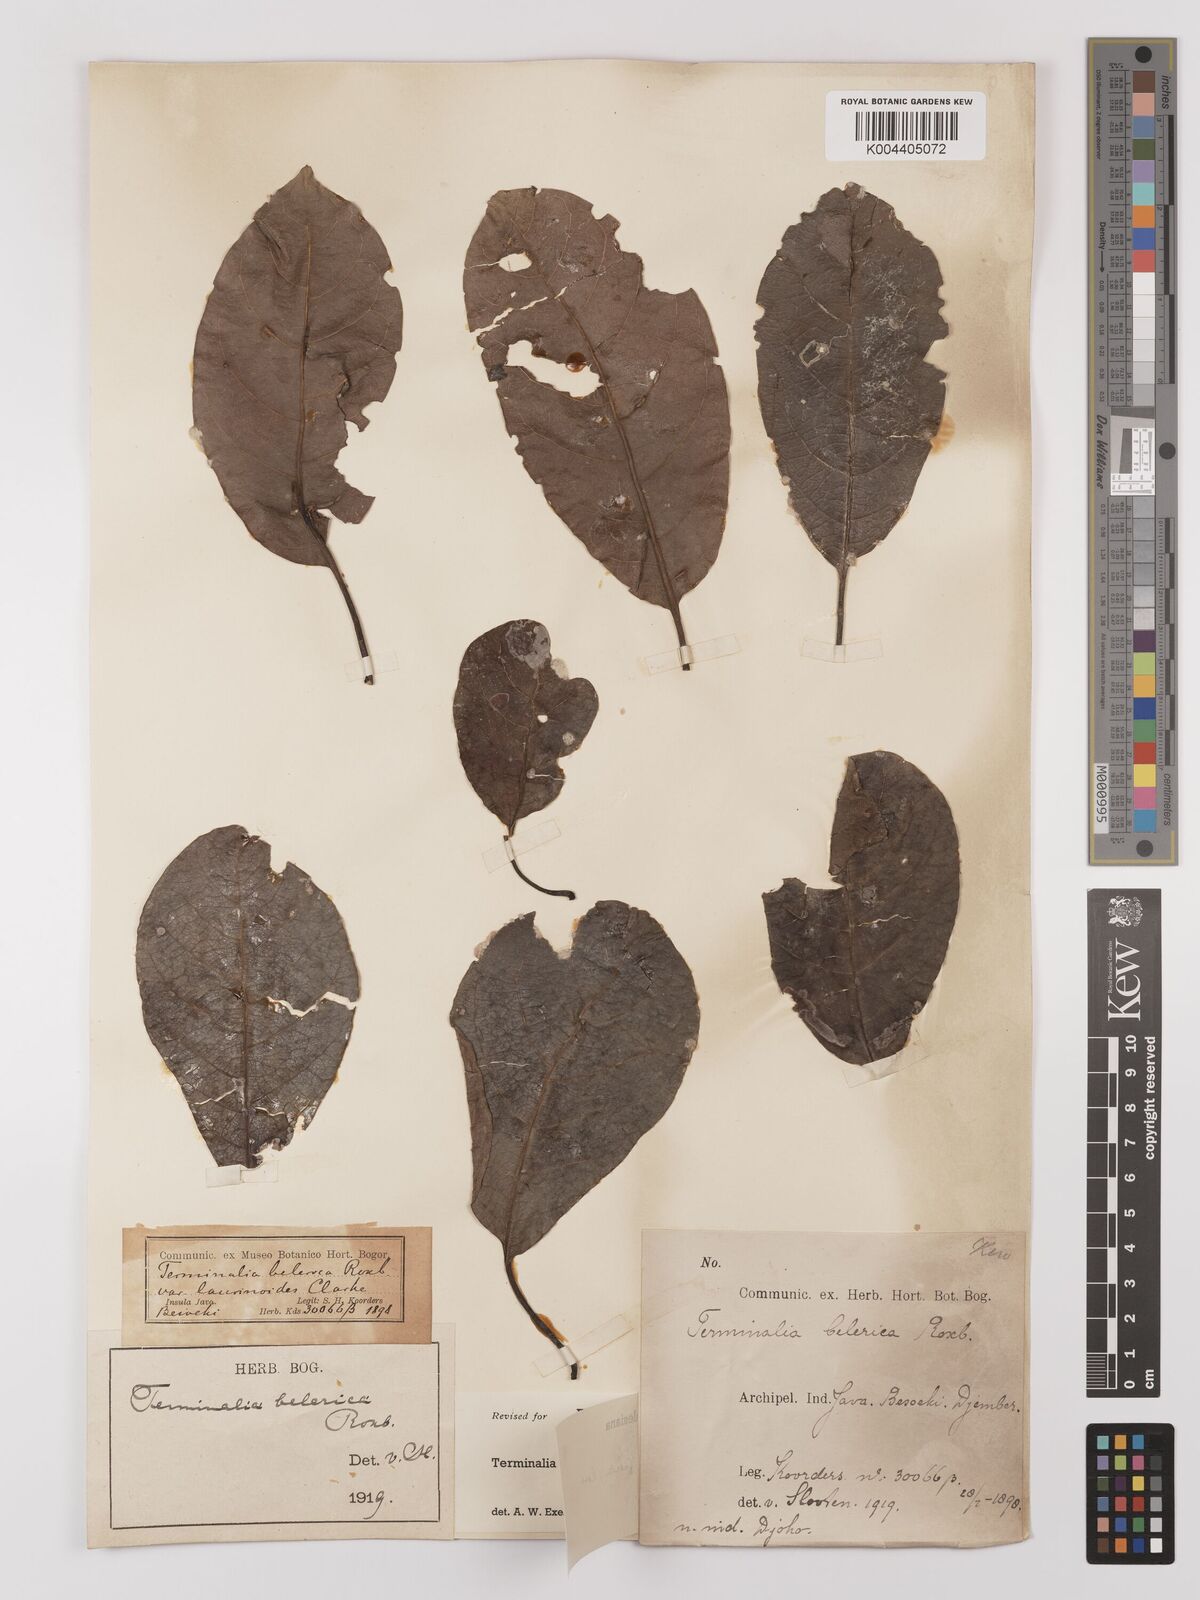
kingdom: Plantae
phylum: Tracheophyta
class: Magnoliopsida
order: Myrtales
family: Combretaceae
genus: Terminalia
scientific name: Terminalia bellirica
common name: Beleric myrobalan
